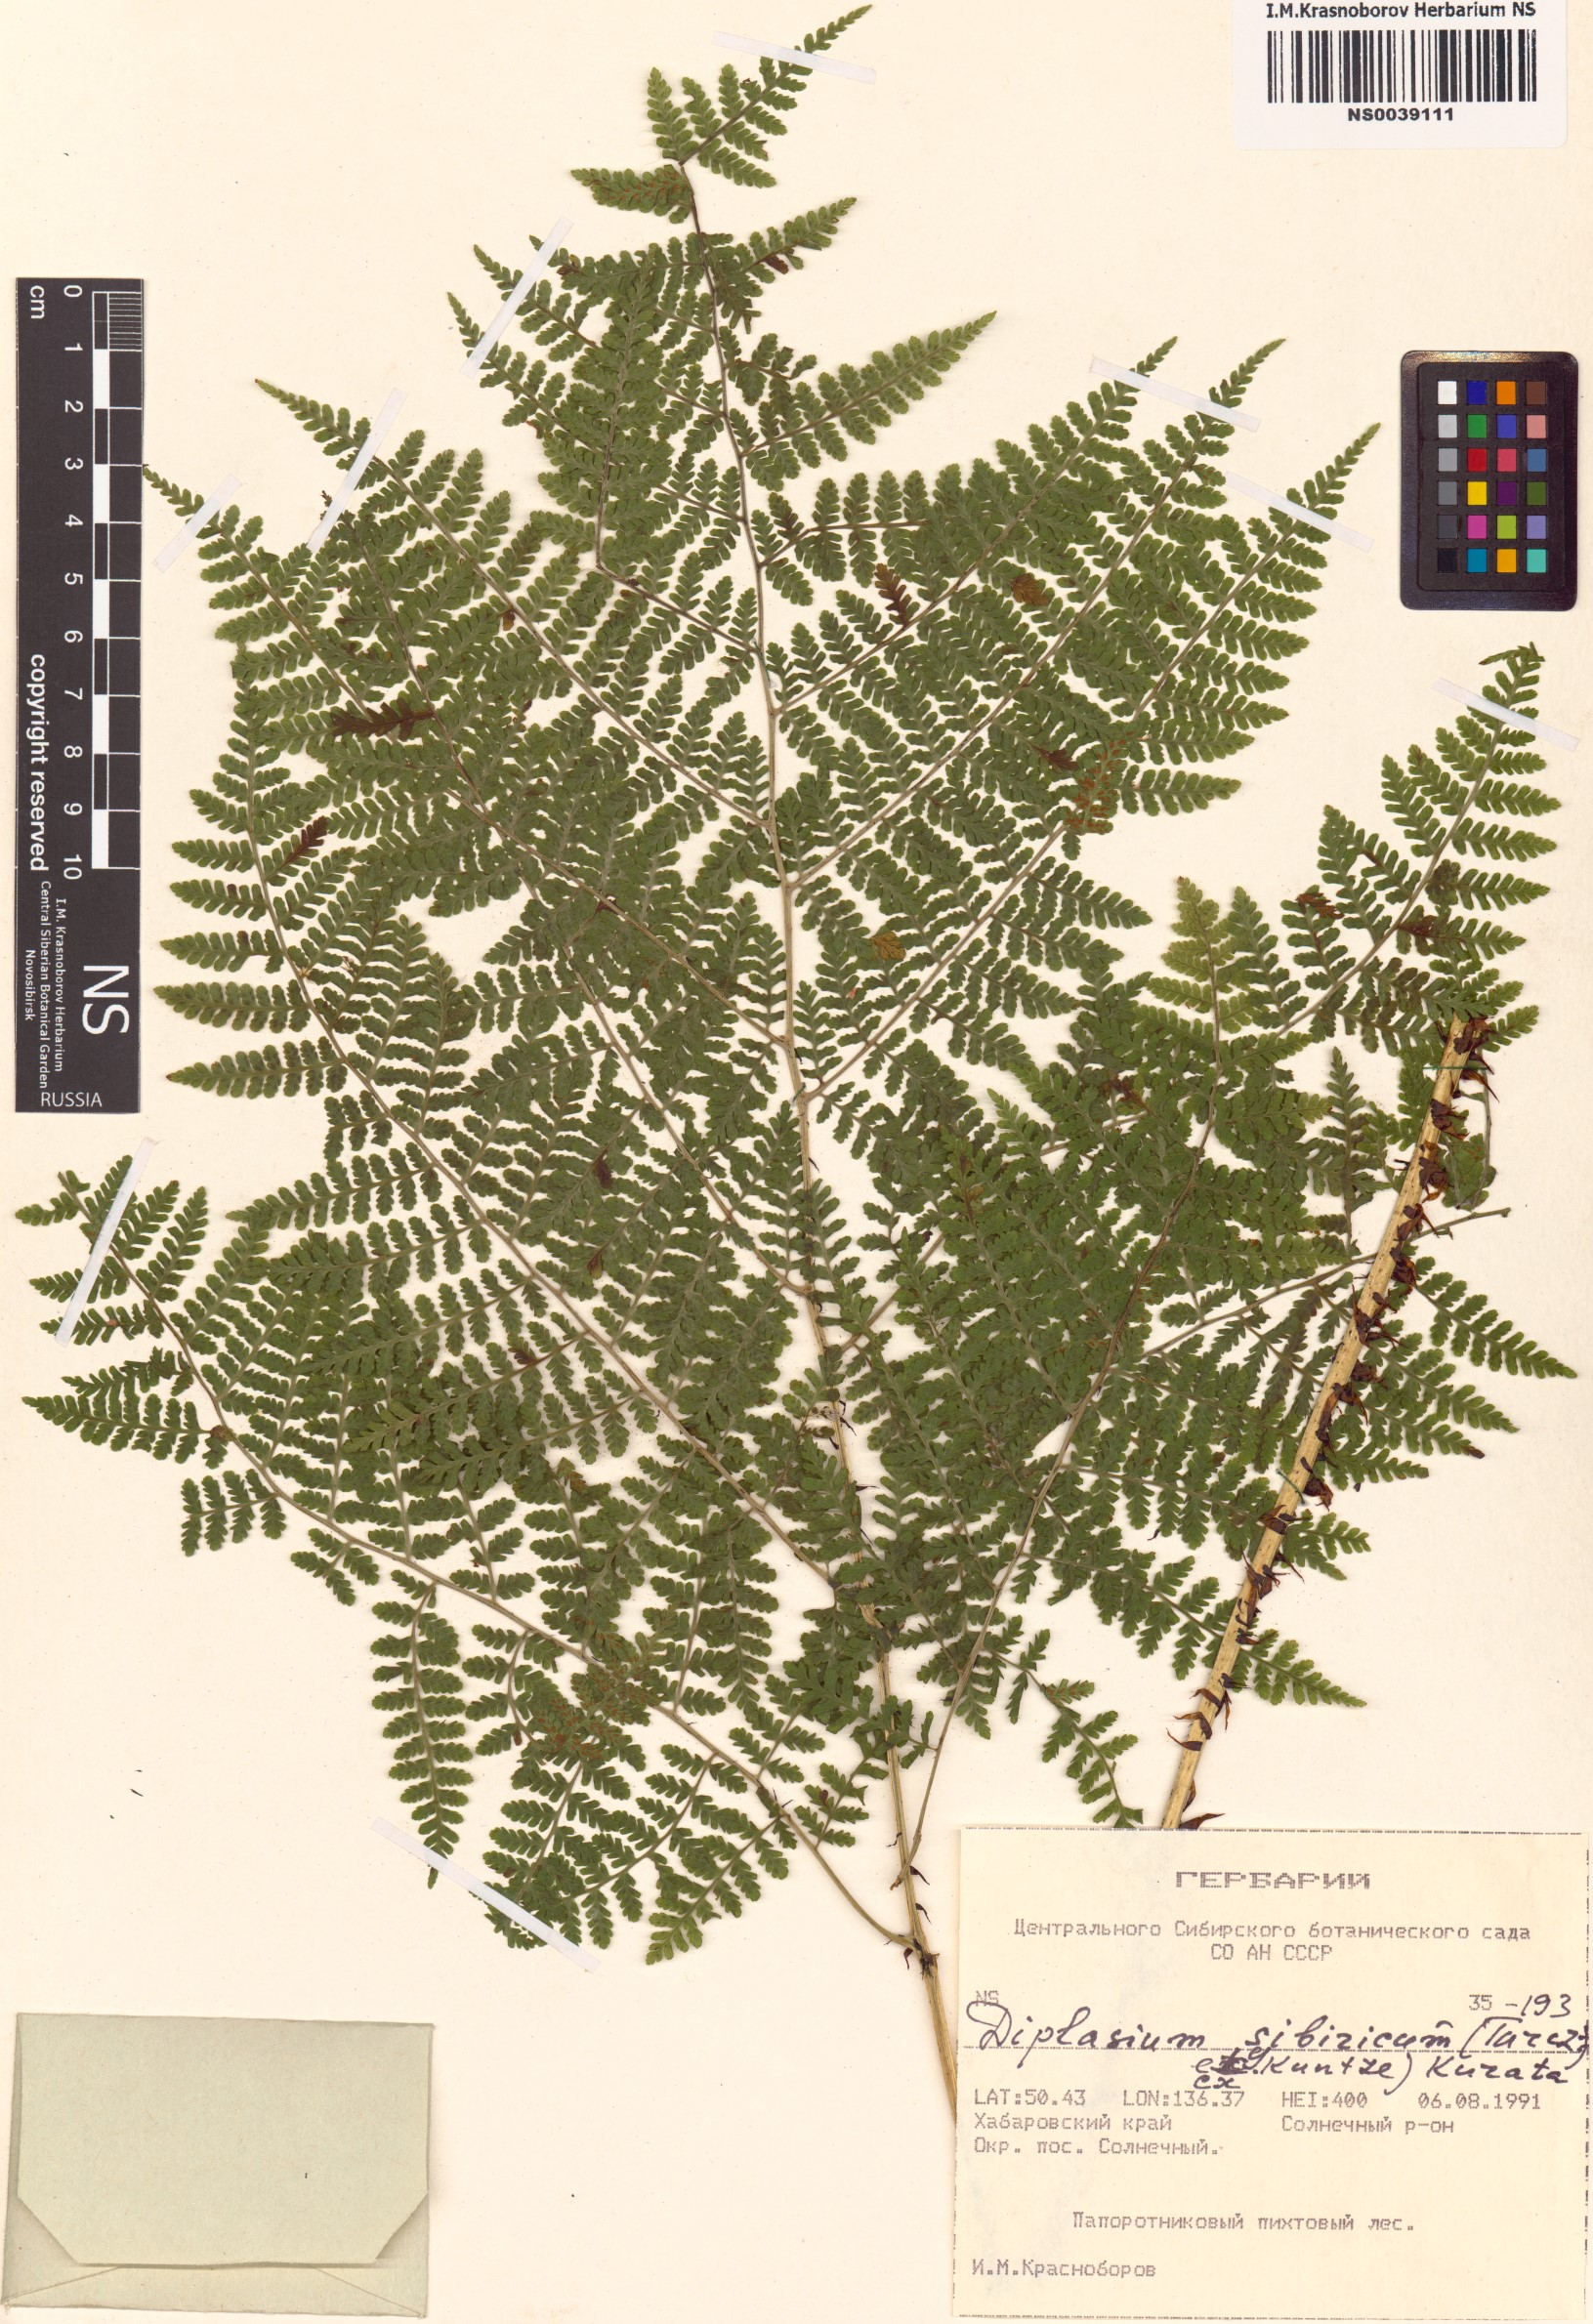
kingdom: Plantae
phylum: Tracheophyta
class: Polypodiopsida
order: Polypodiales
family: Athyriaceae
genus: Diplazium
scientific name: Diplazium sibiricum
